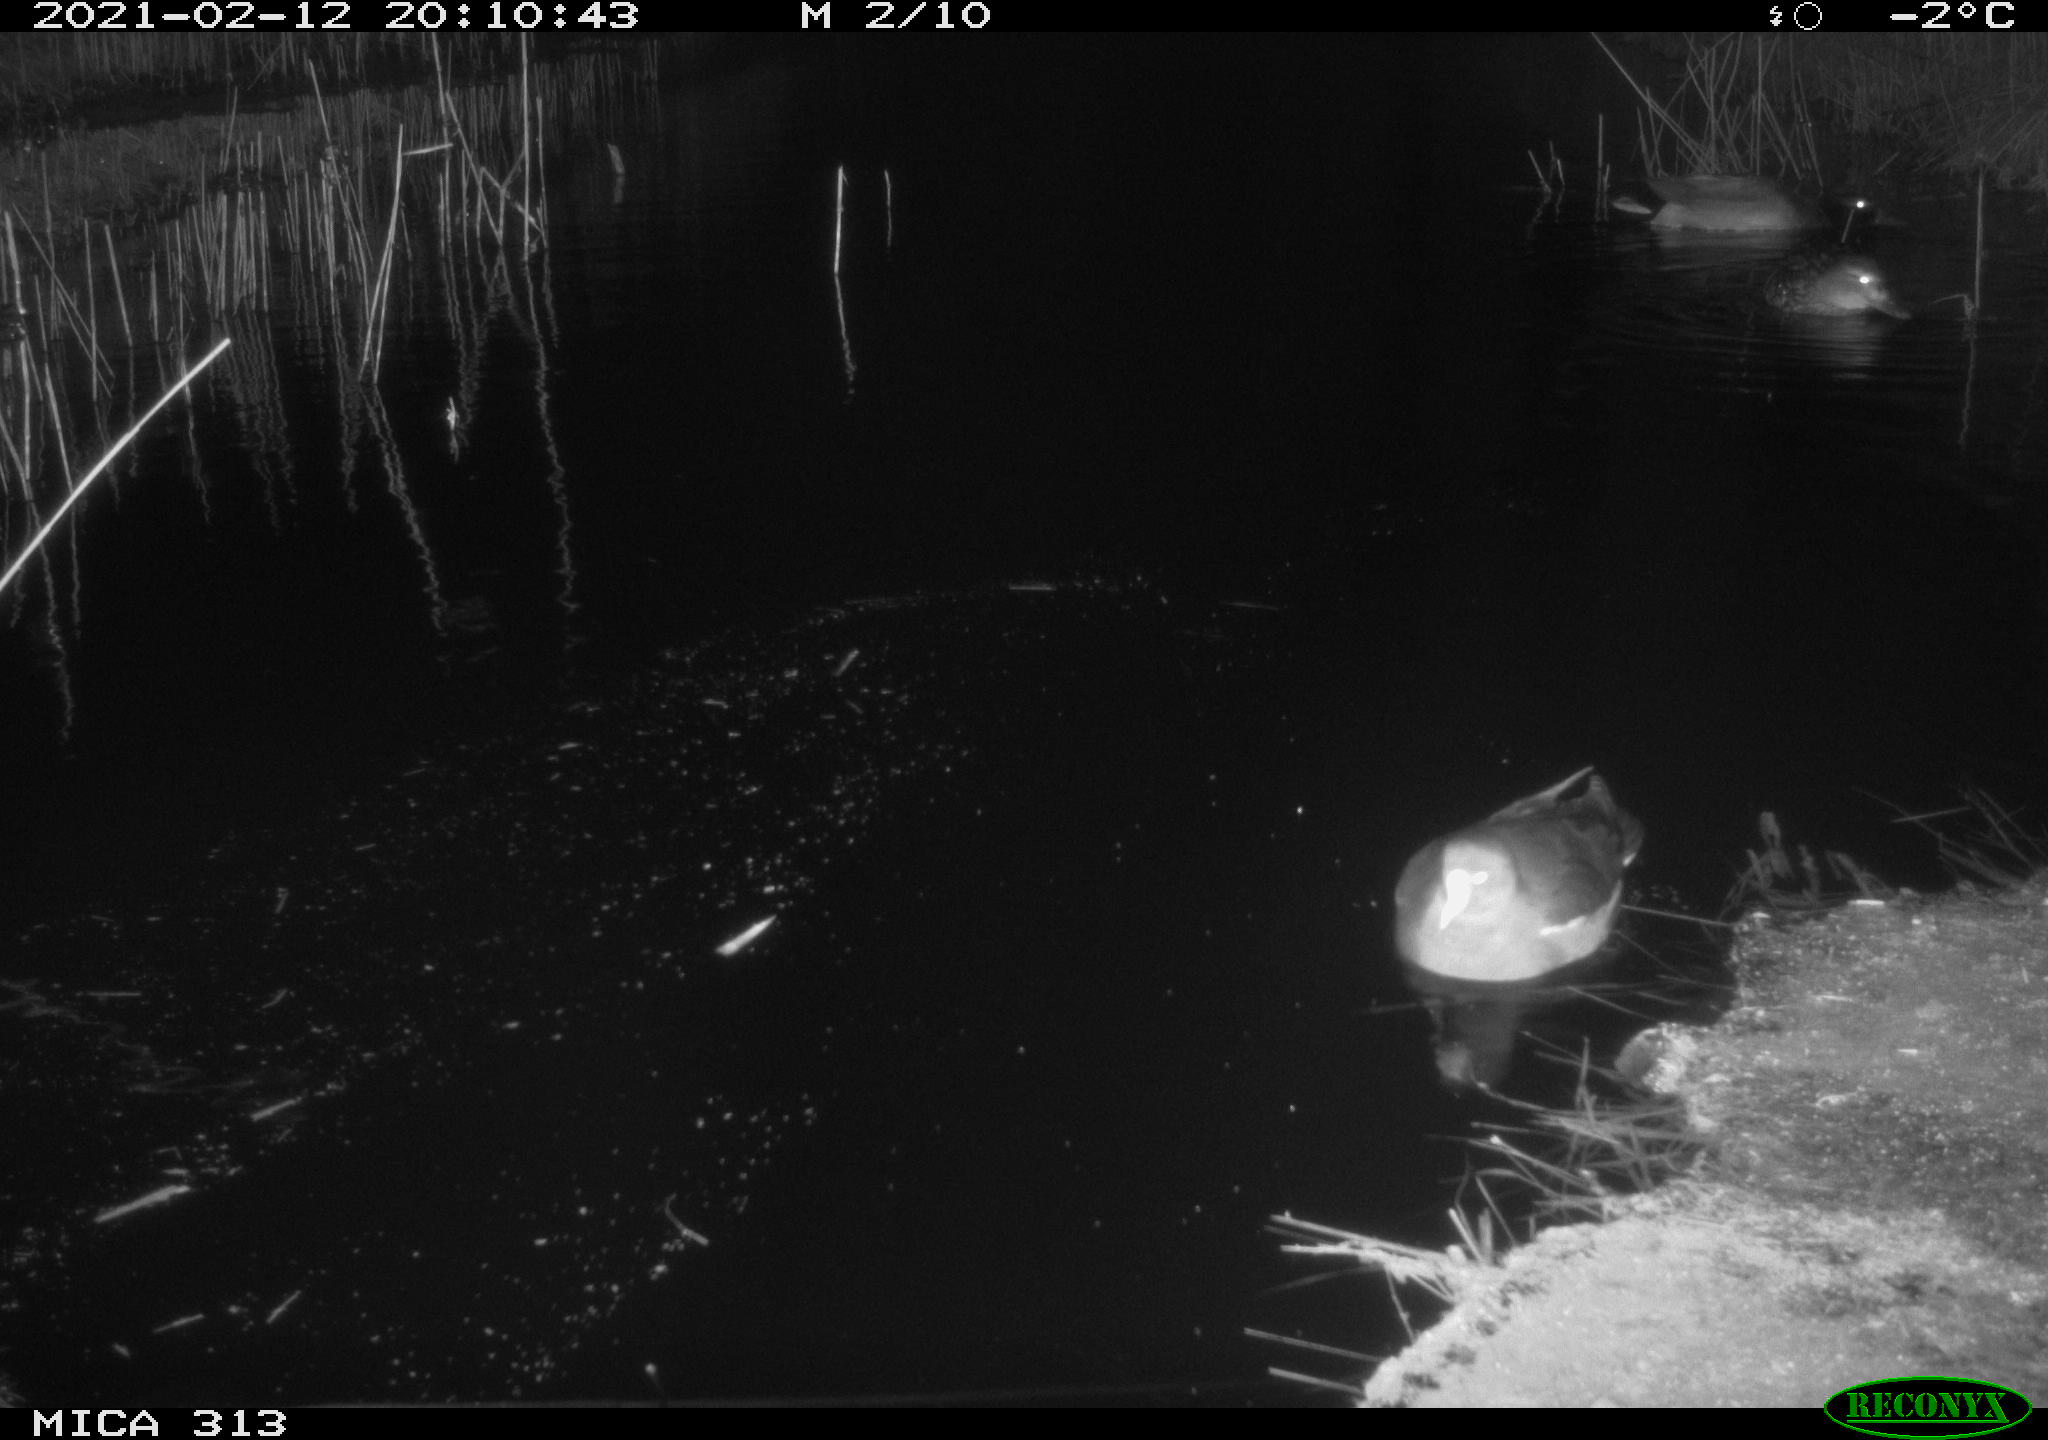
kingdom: Animalia
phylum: Chordata
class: Aves
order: Gruiformes
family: Rallidae
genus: Fulica
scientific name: Fulica atra
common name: Eurasian coot
